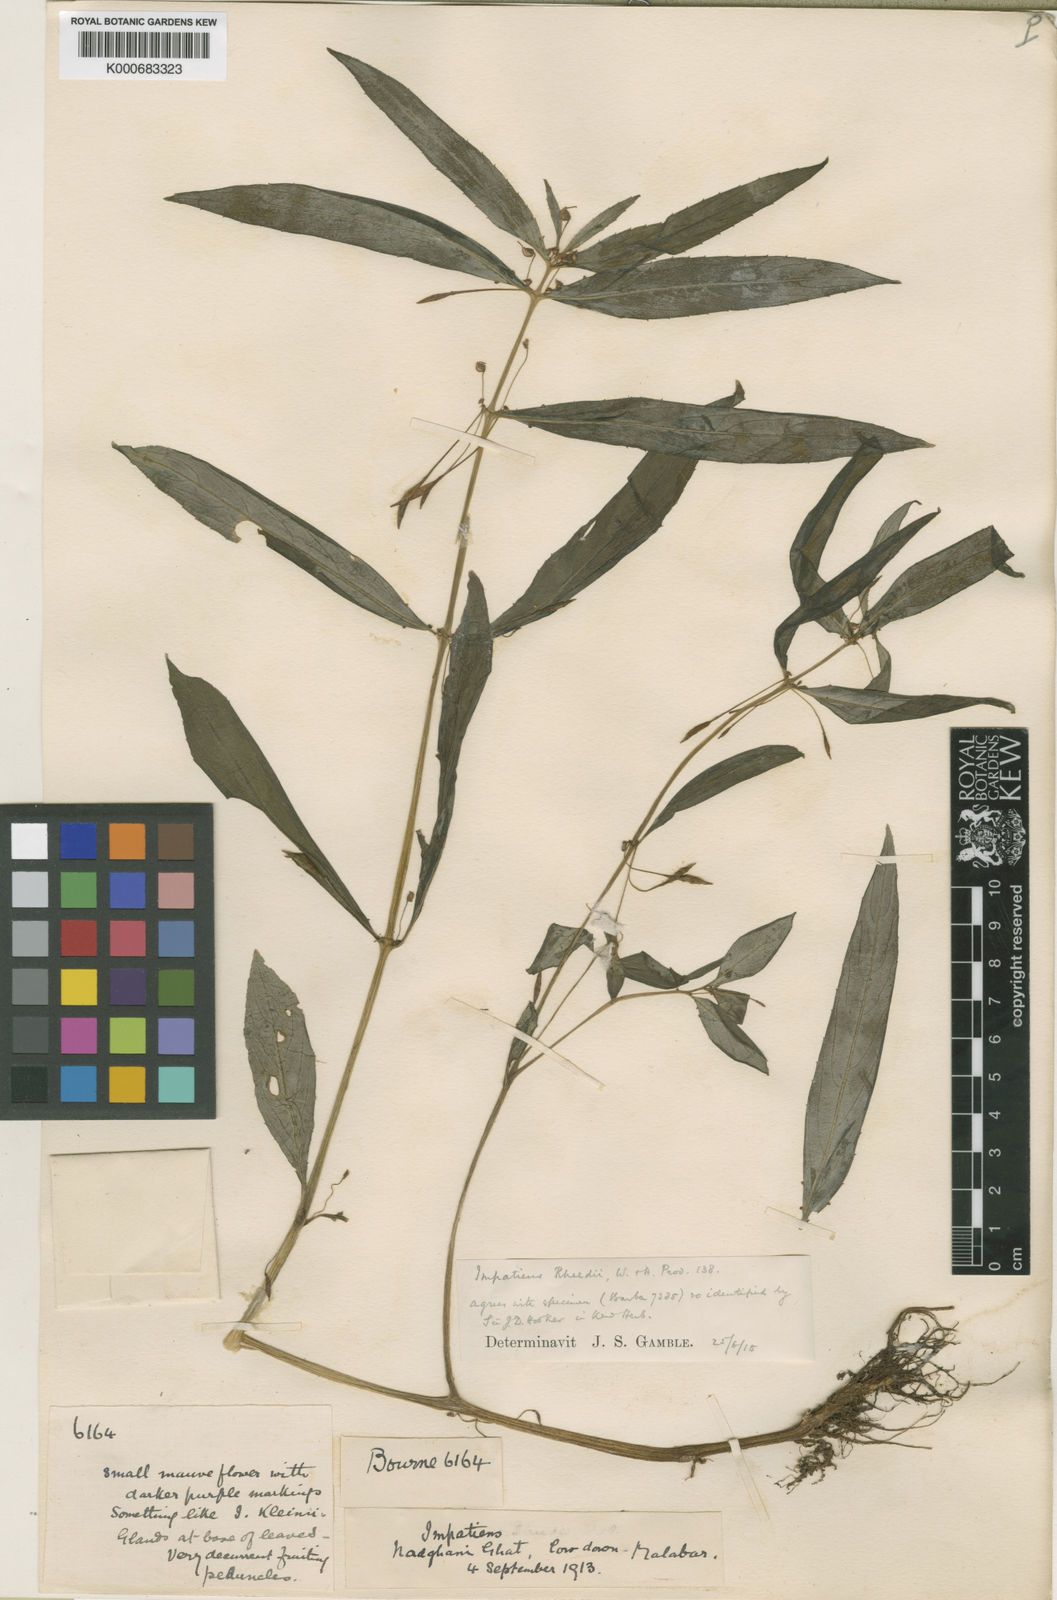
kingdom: Plantae
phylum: Tracheophyta
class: Magnoliopsida
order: Ericales
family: Balsaminaceae
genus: Impatiens
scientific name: Impatiens minor
